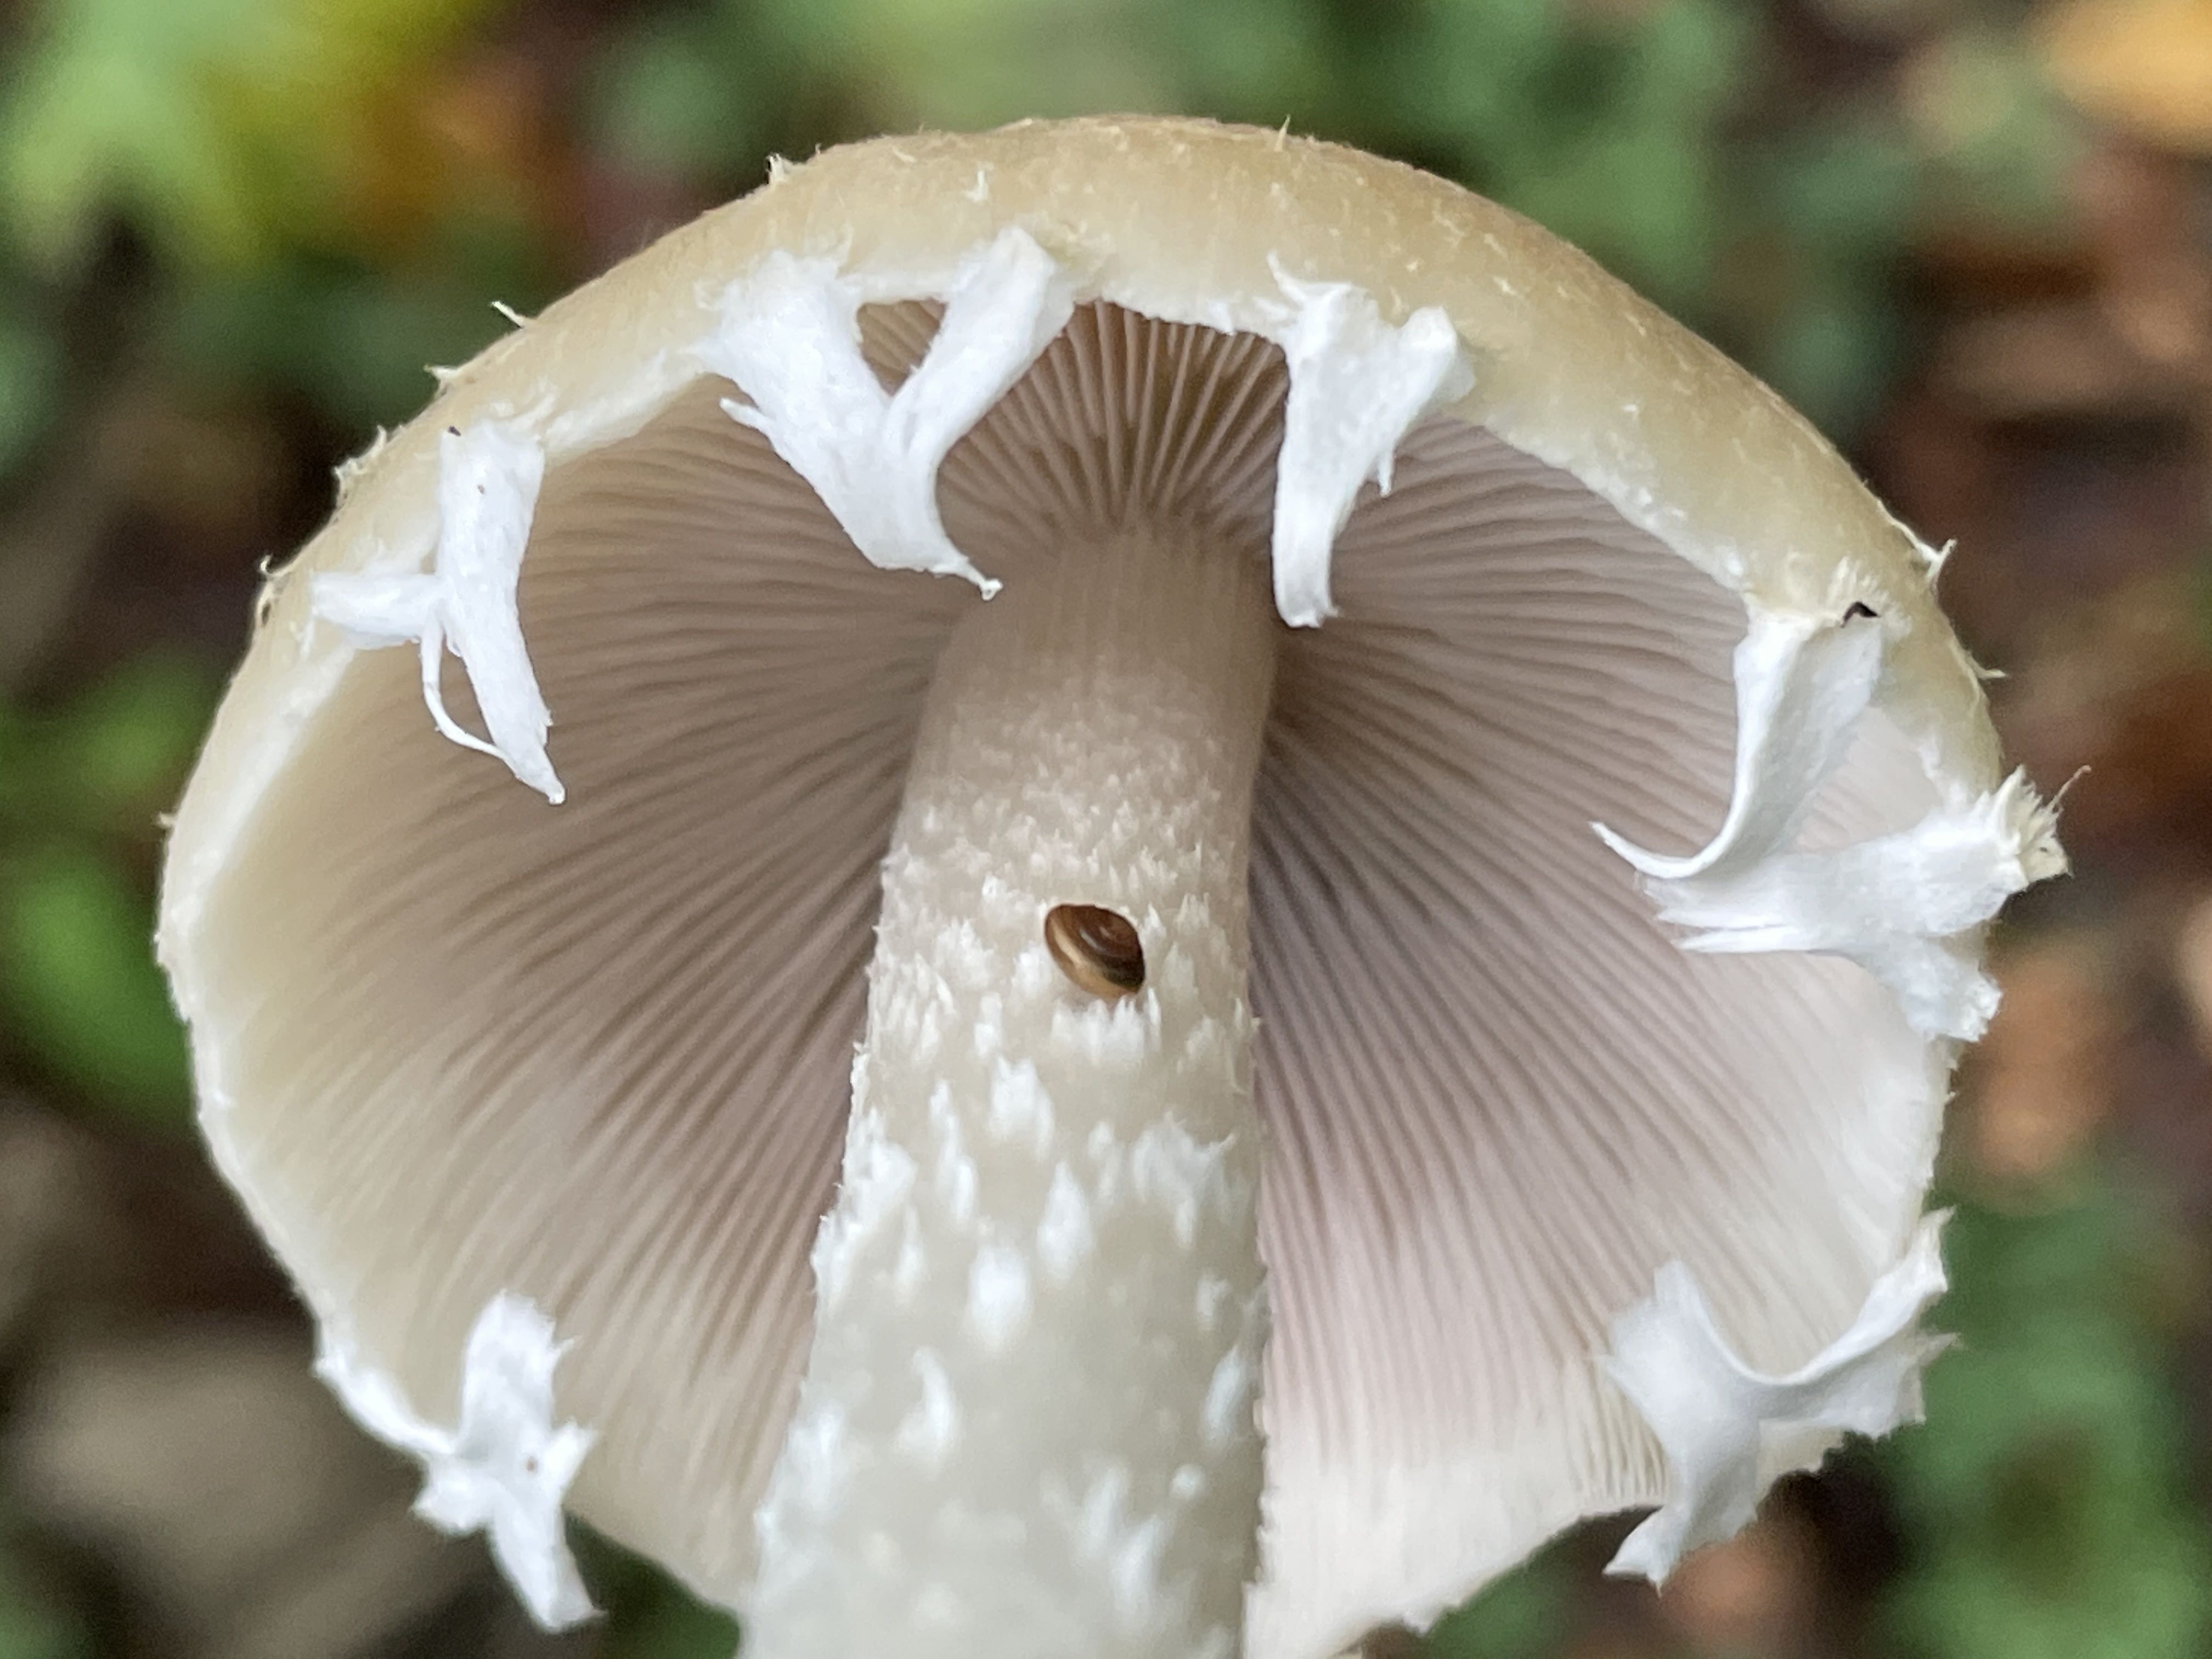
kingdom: Fungi
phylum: Basidiomycota
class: Agaricomycetes
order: Agaricales
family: Psathyrellaceae
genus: Candolleomyces
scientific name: Candolleomyces candolleanus
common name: Candolles mørkhat
